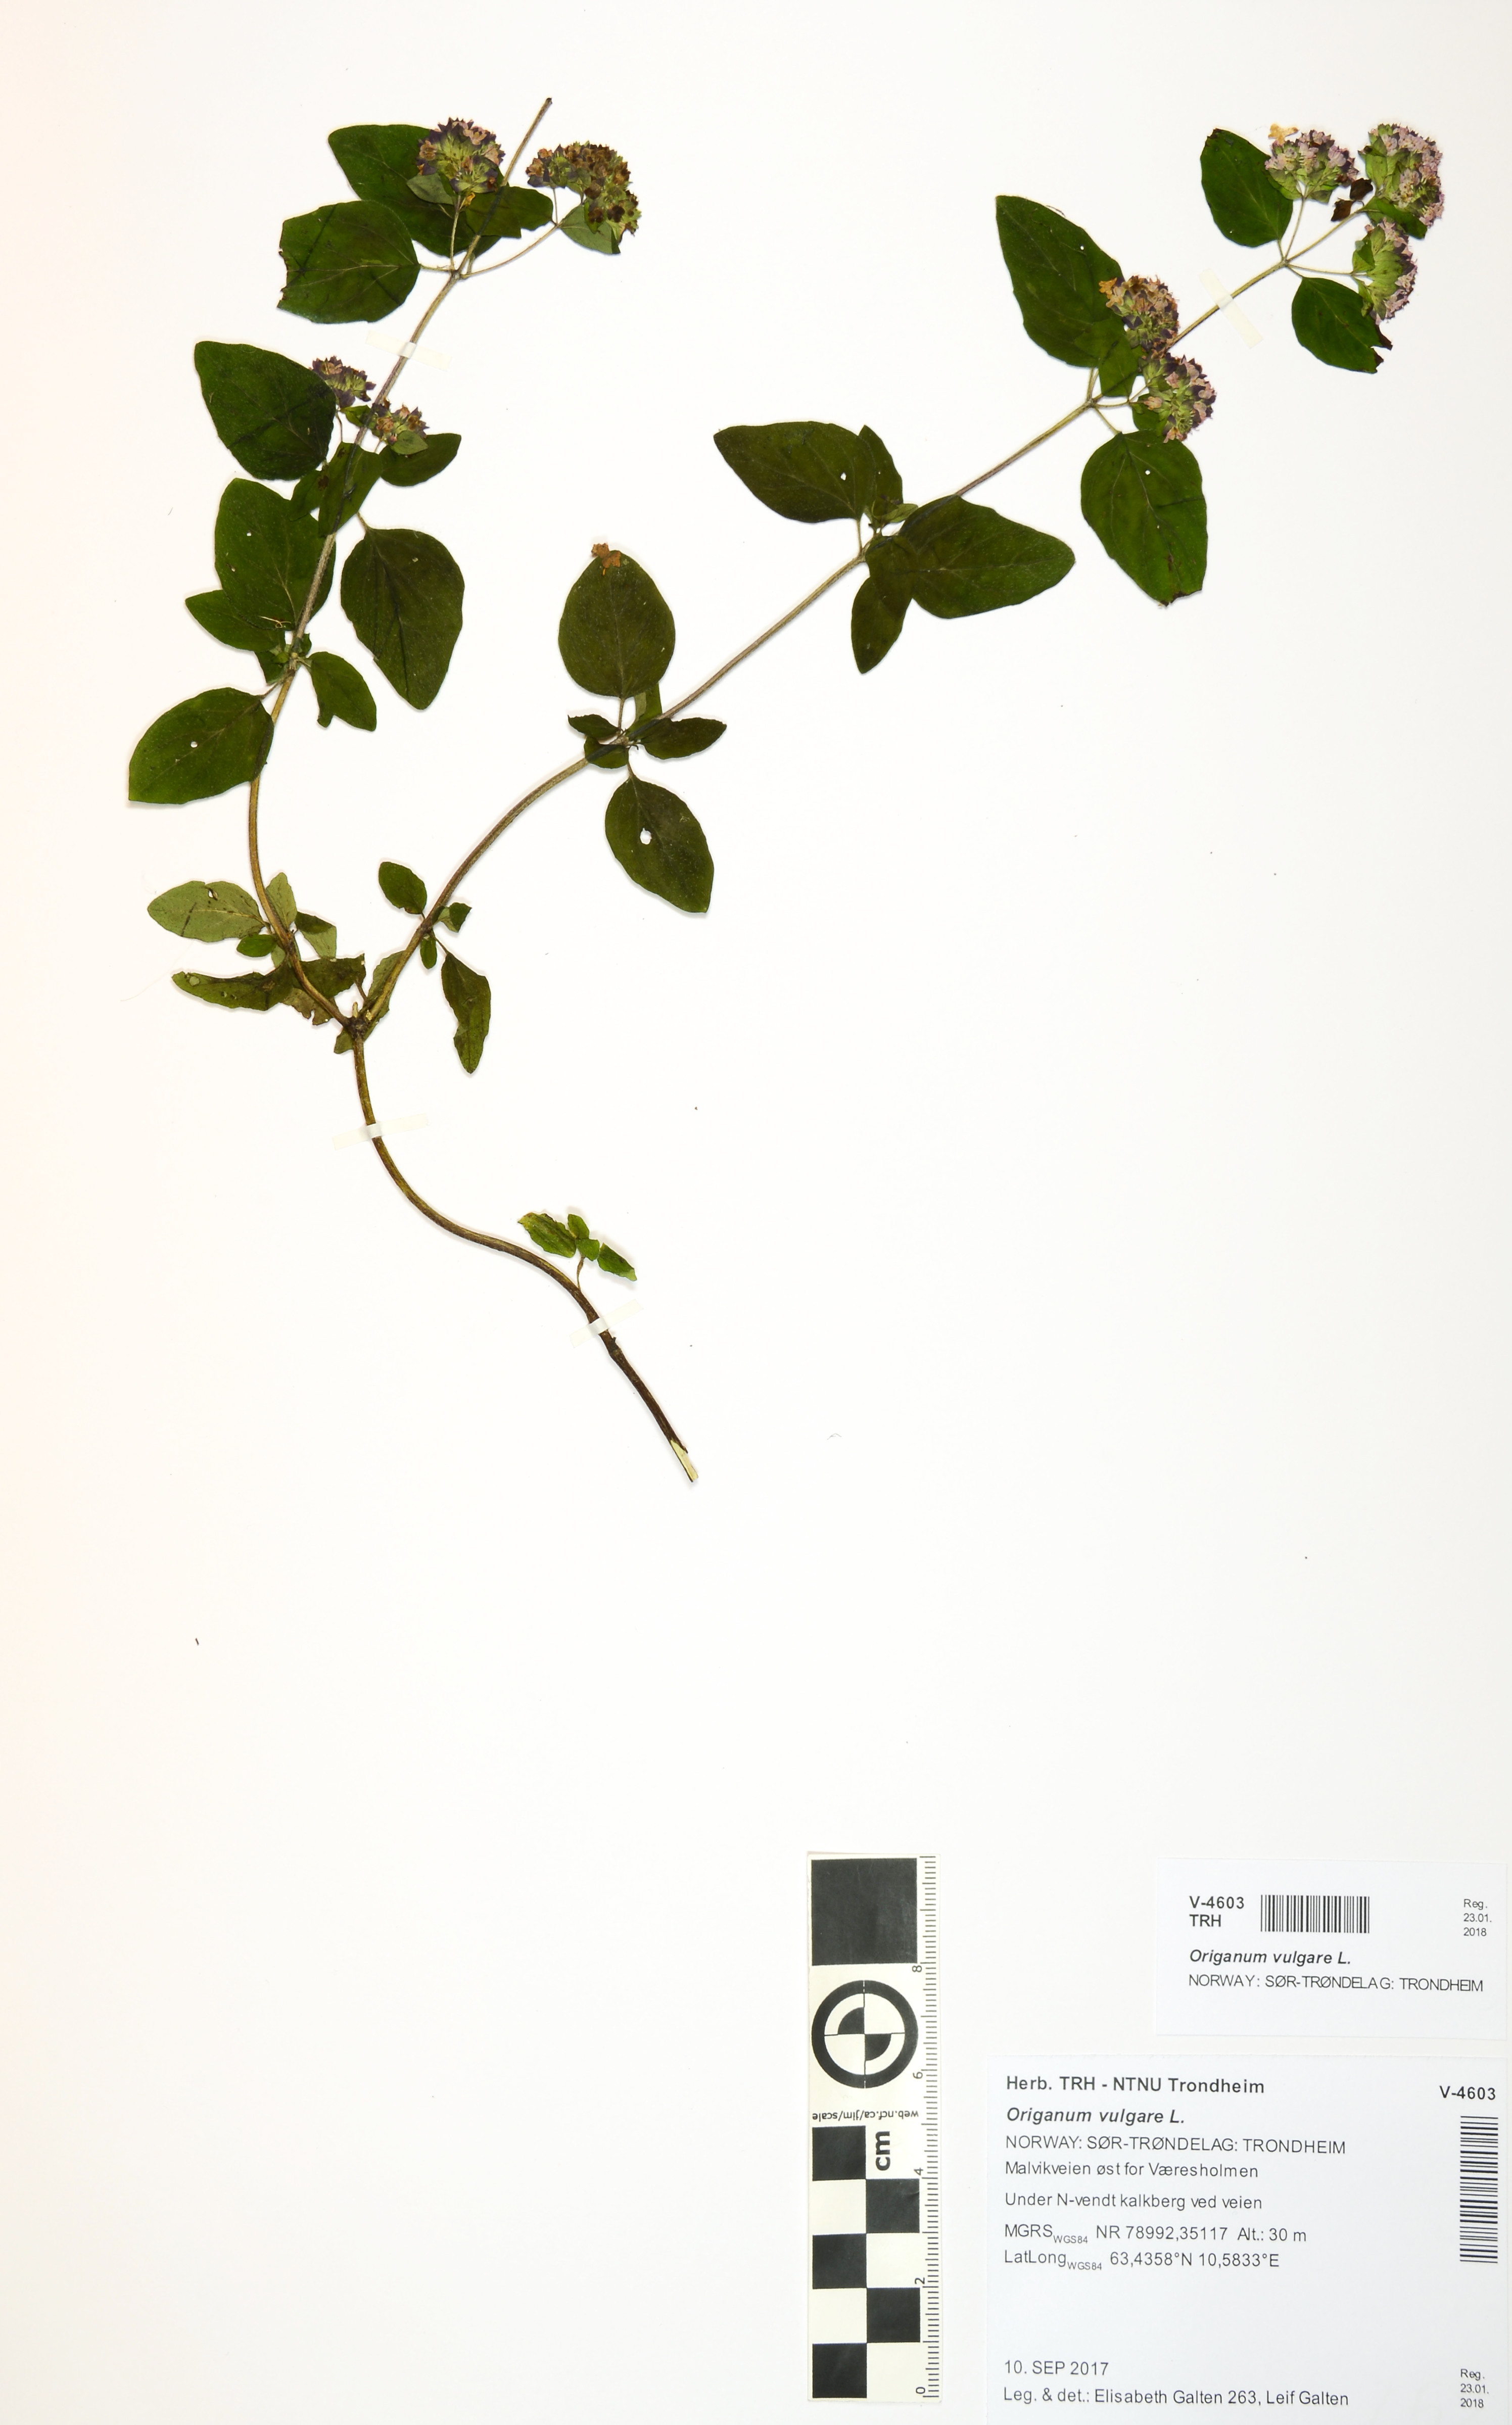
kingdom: Plantae
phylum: Tracheophyta
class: Magnoliopsida
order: Lamiales
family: Lamiaceae
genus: Origanum
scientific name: Origanum vulgare
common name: Wild marjoram
